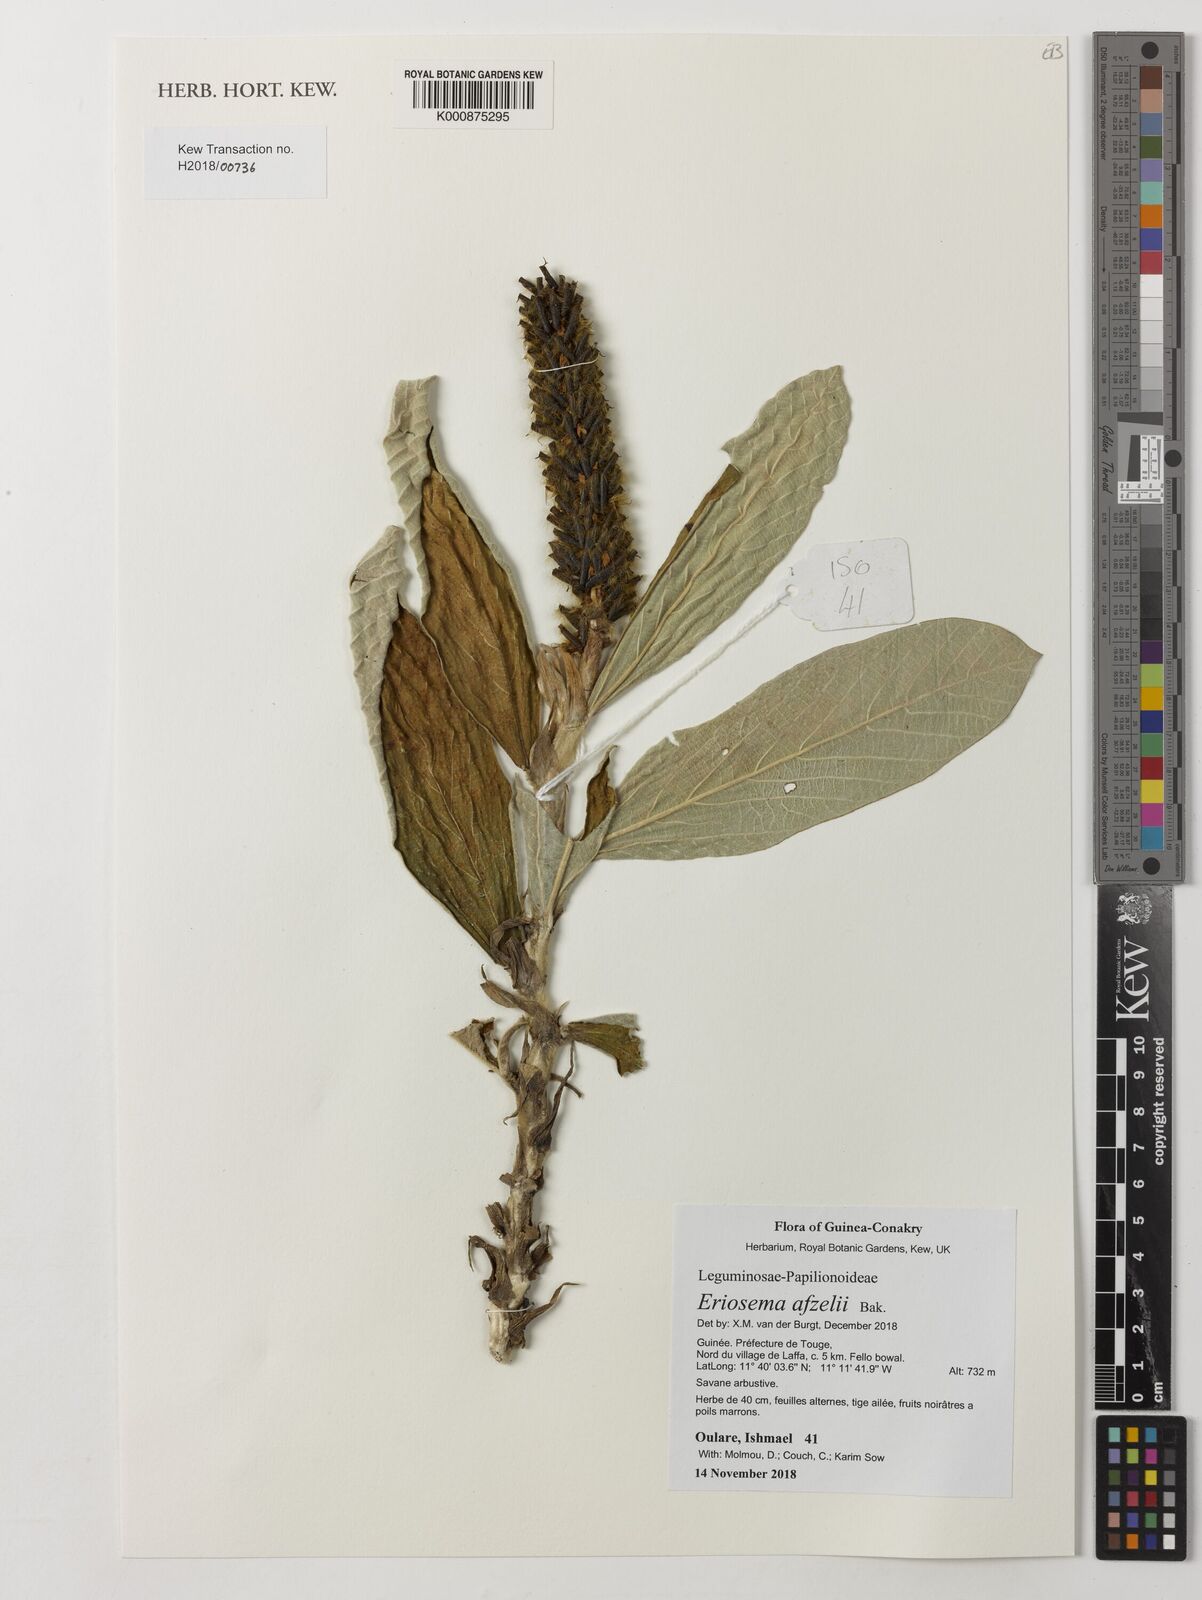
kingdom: Plantae
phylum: Tracheophyta
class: Magnoliopsida
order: Fabales
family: Fabaceae
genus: Eriosema
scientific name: Eriosema afzelii
